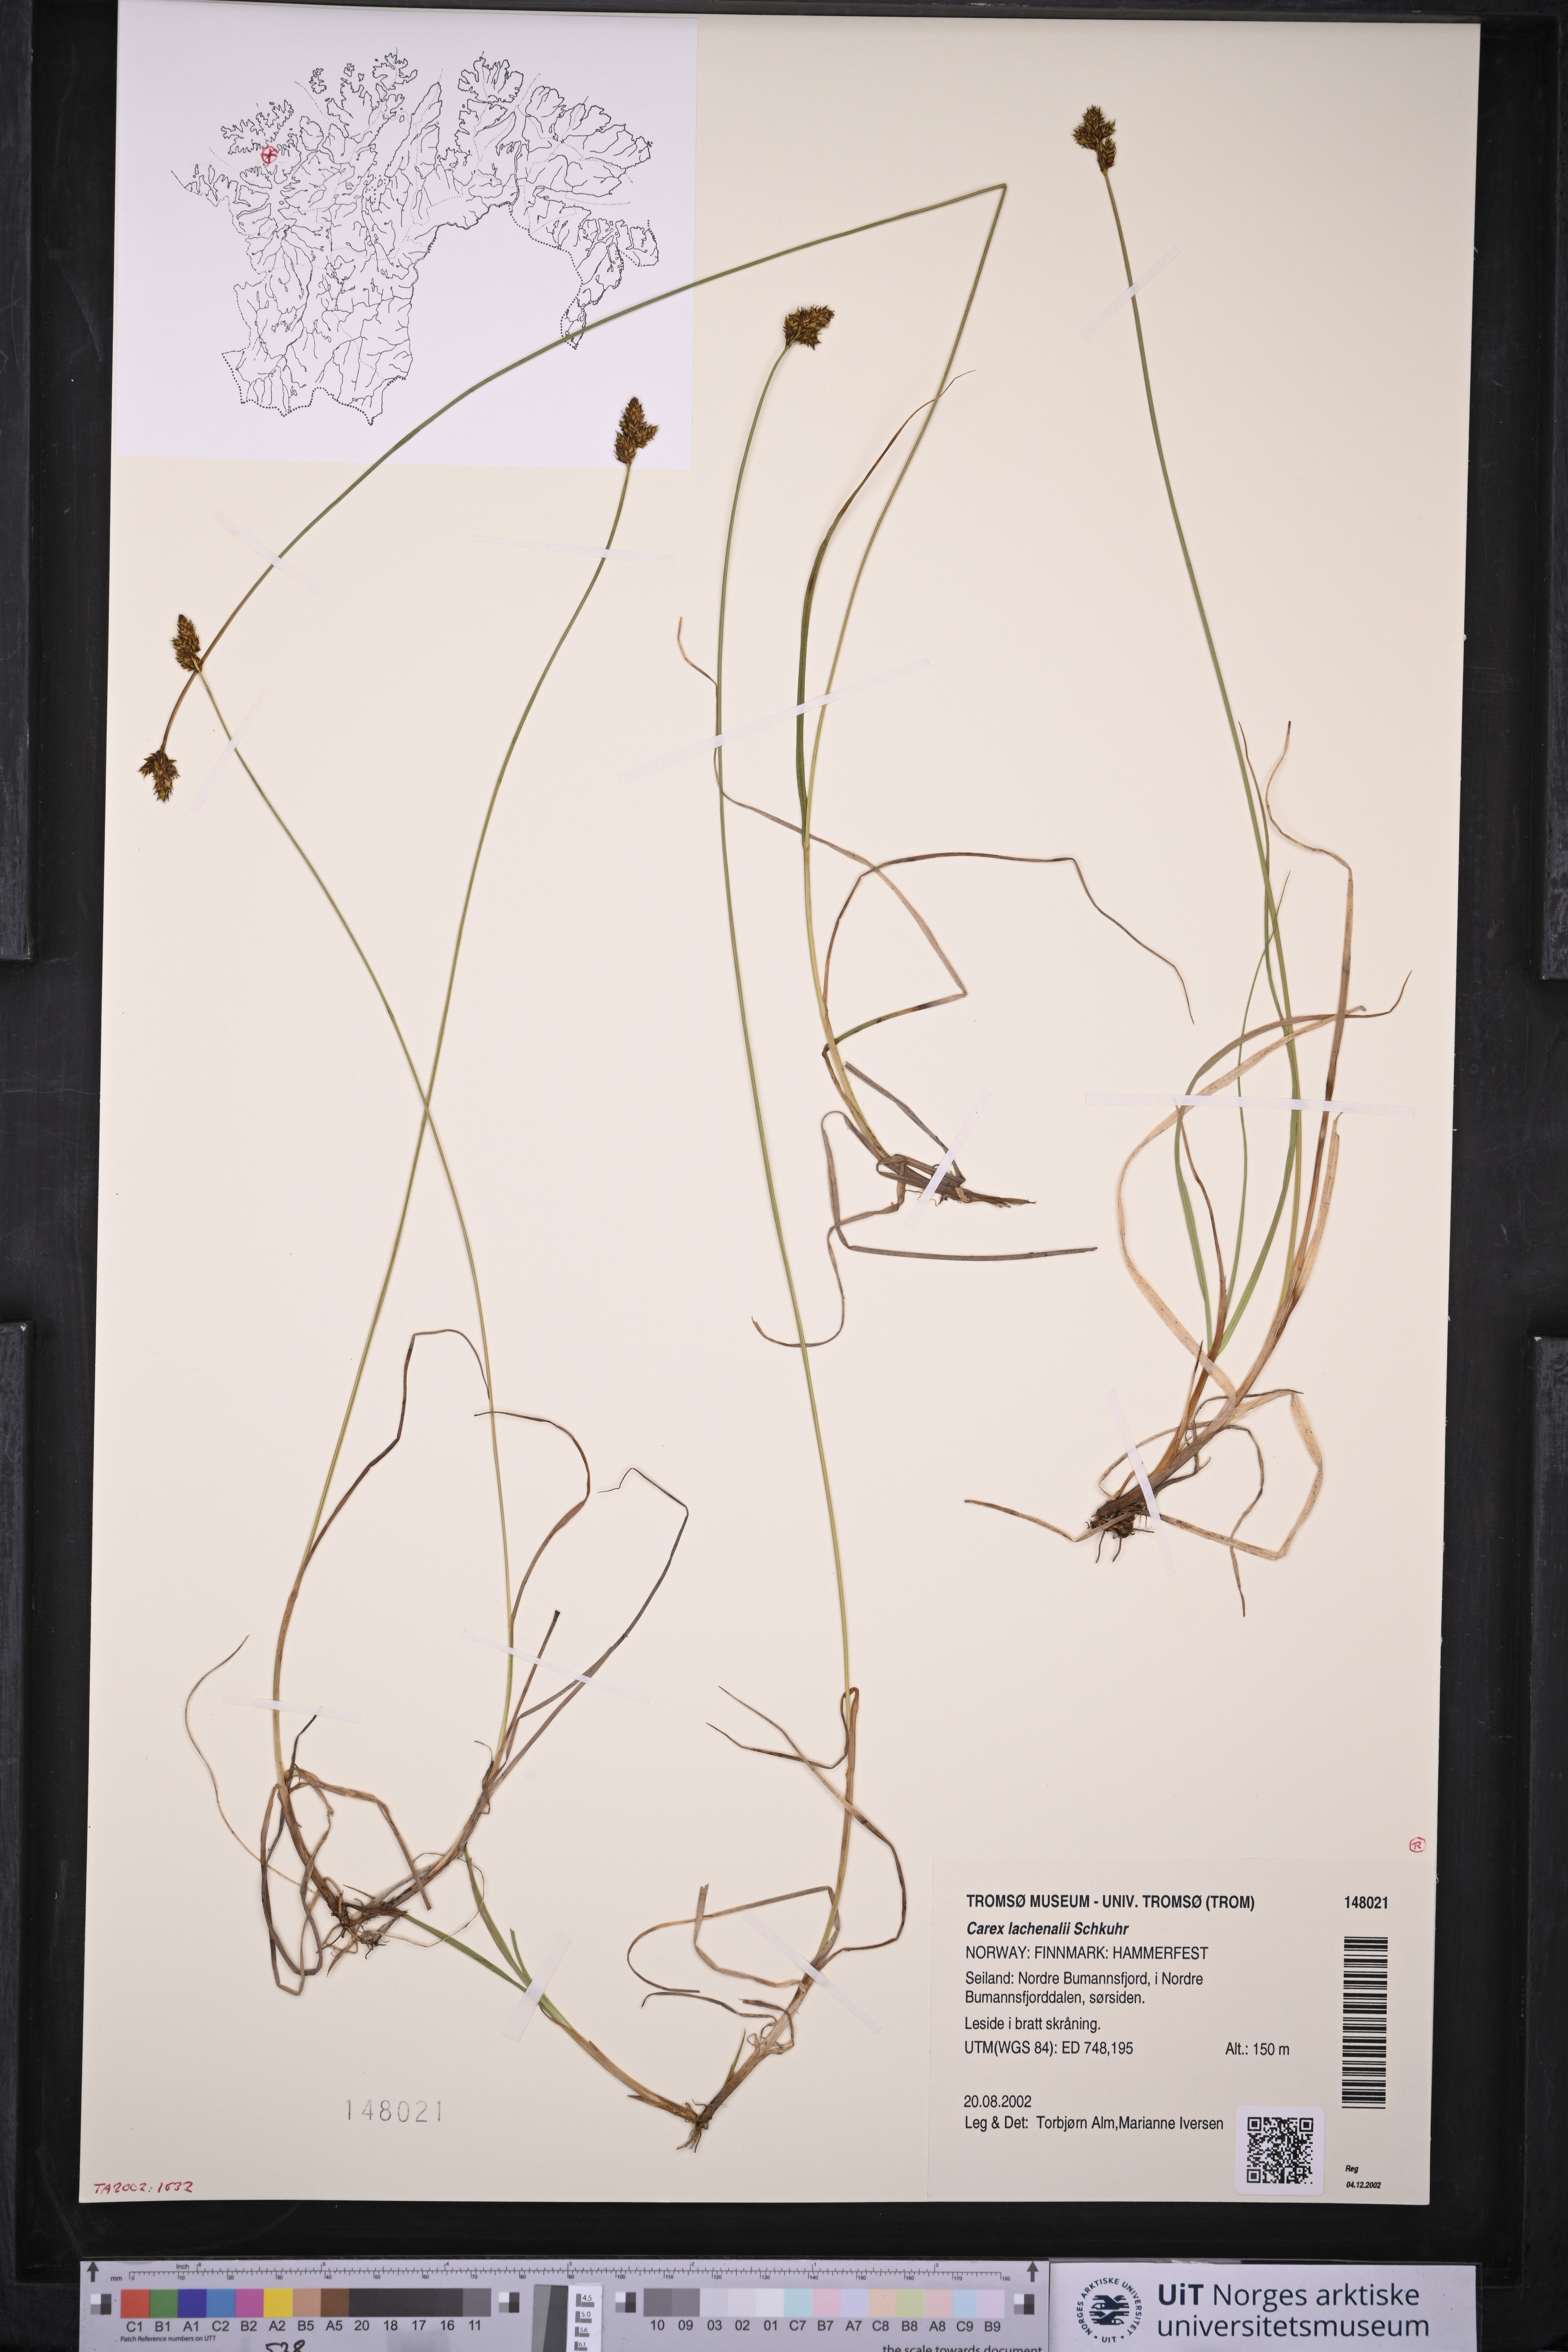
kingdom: Plantae
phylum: Tracheophyta
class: Liliopsida
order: Poales
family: Cyperaceae
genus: Carex
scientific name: Carex lachenalii
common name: Hare's-foot sedge
